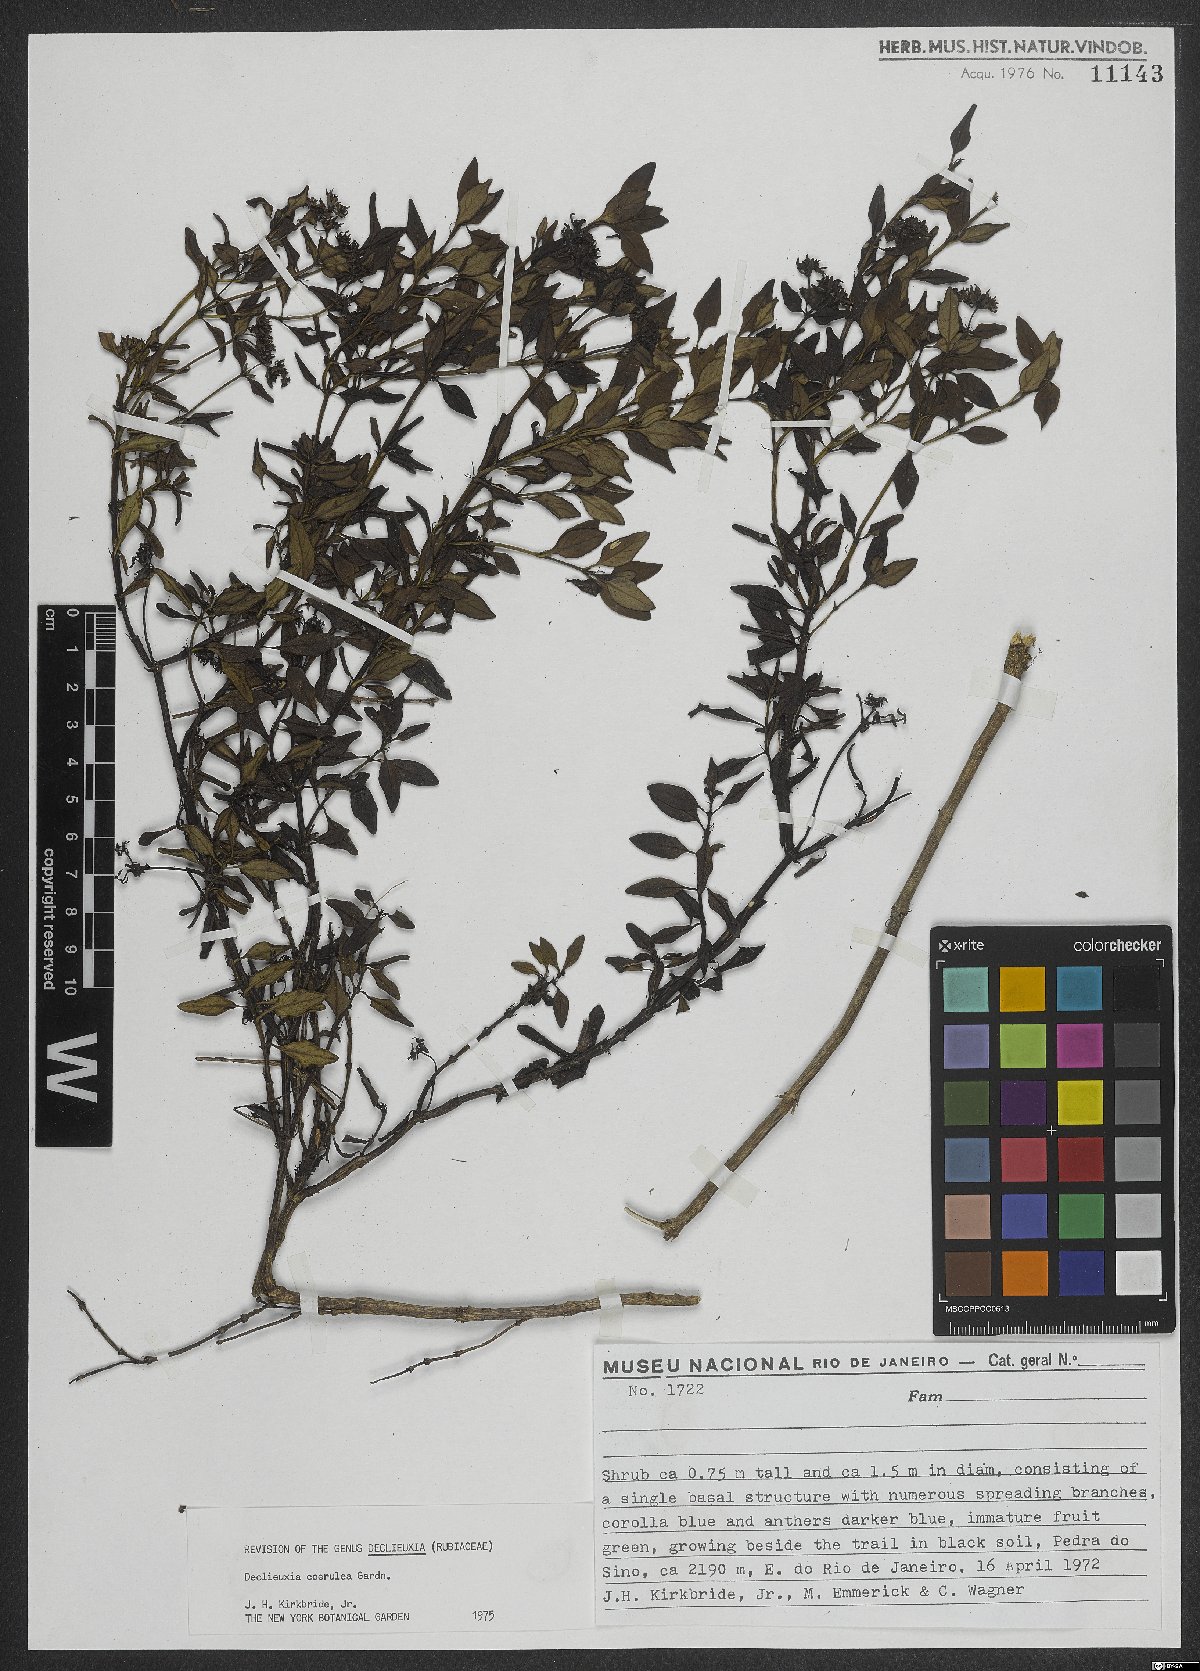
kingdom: Plantae
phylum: Tracheophyta
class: Magnoliopsida
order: Gentianales
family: Rubiaceae
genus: Declieuxia
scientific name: Declieuxia coerulea
